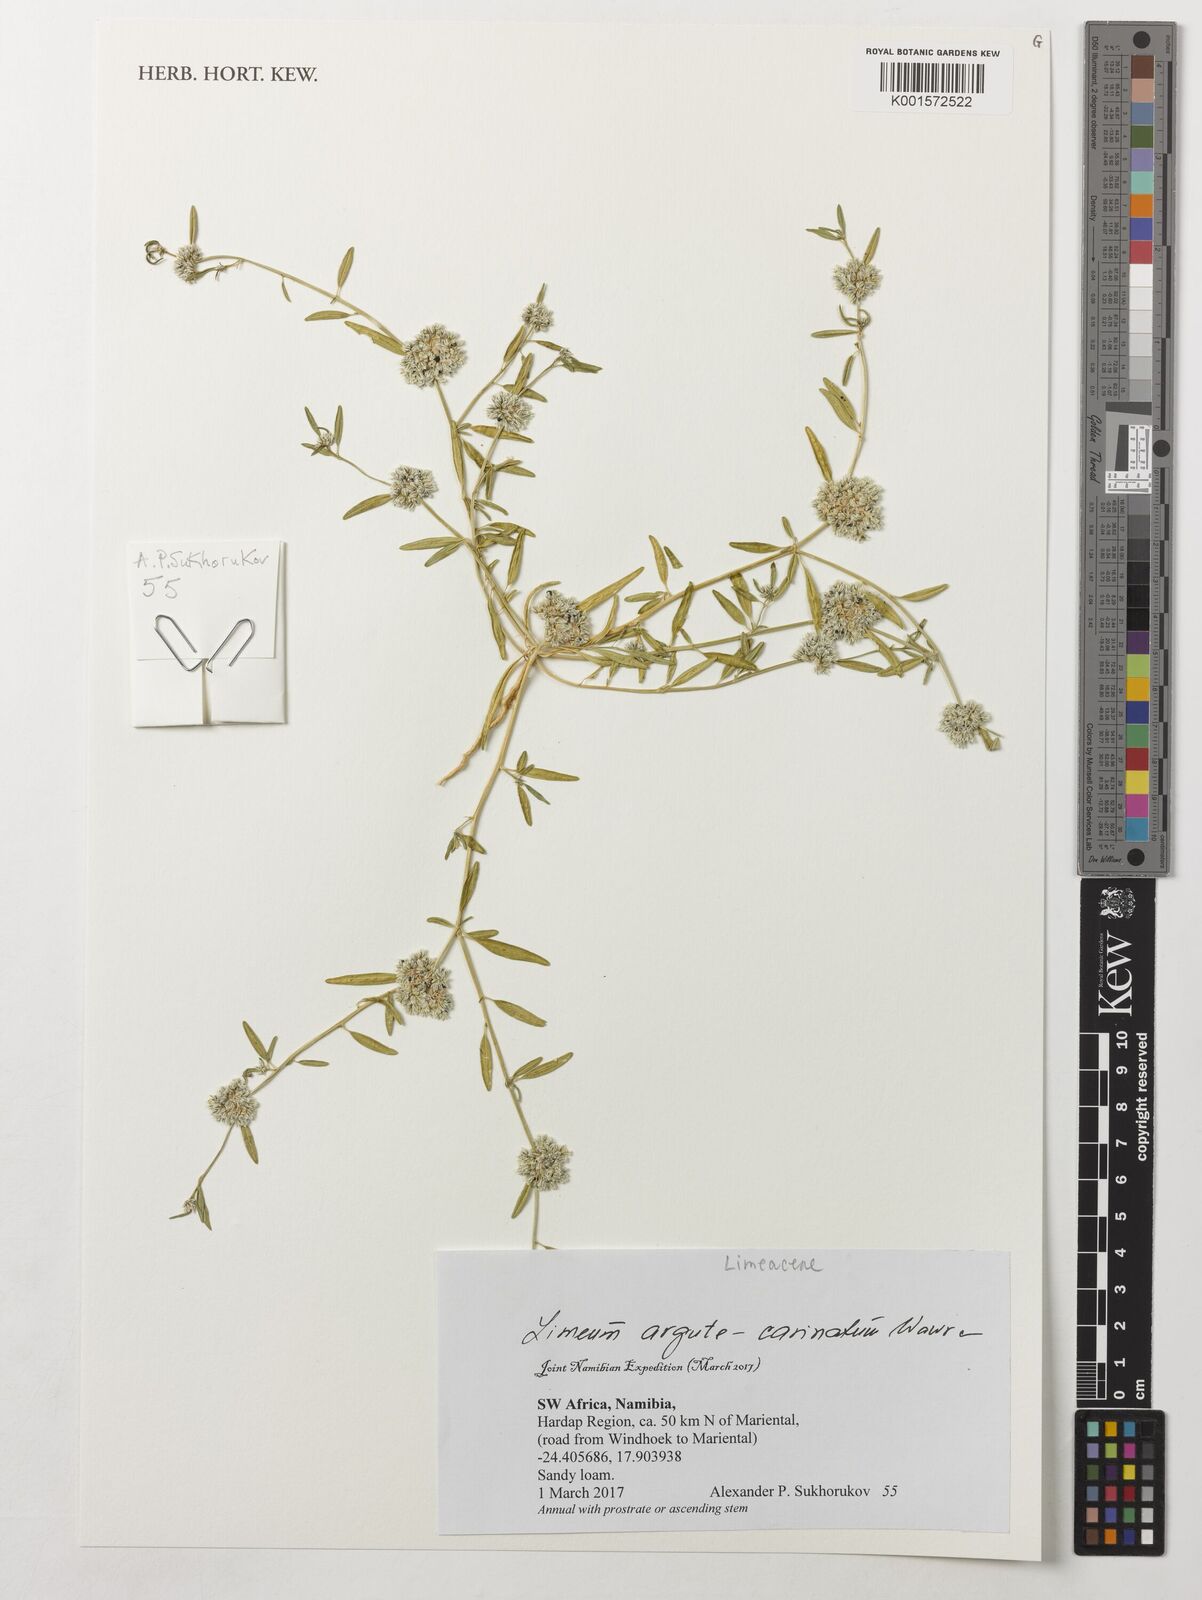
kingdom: Plantae
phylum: Tracheophyta
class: Magnoliopsida
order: Caryophyllales
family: Limeaceae
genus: Limeum
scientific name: Limeum argute-carinatum
